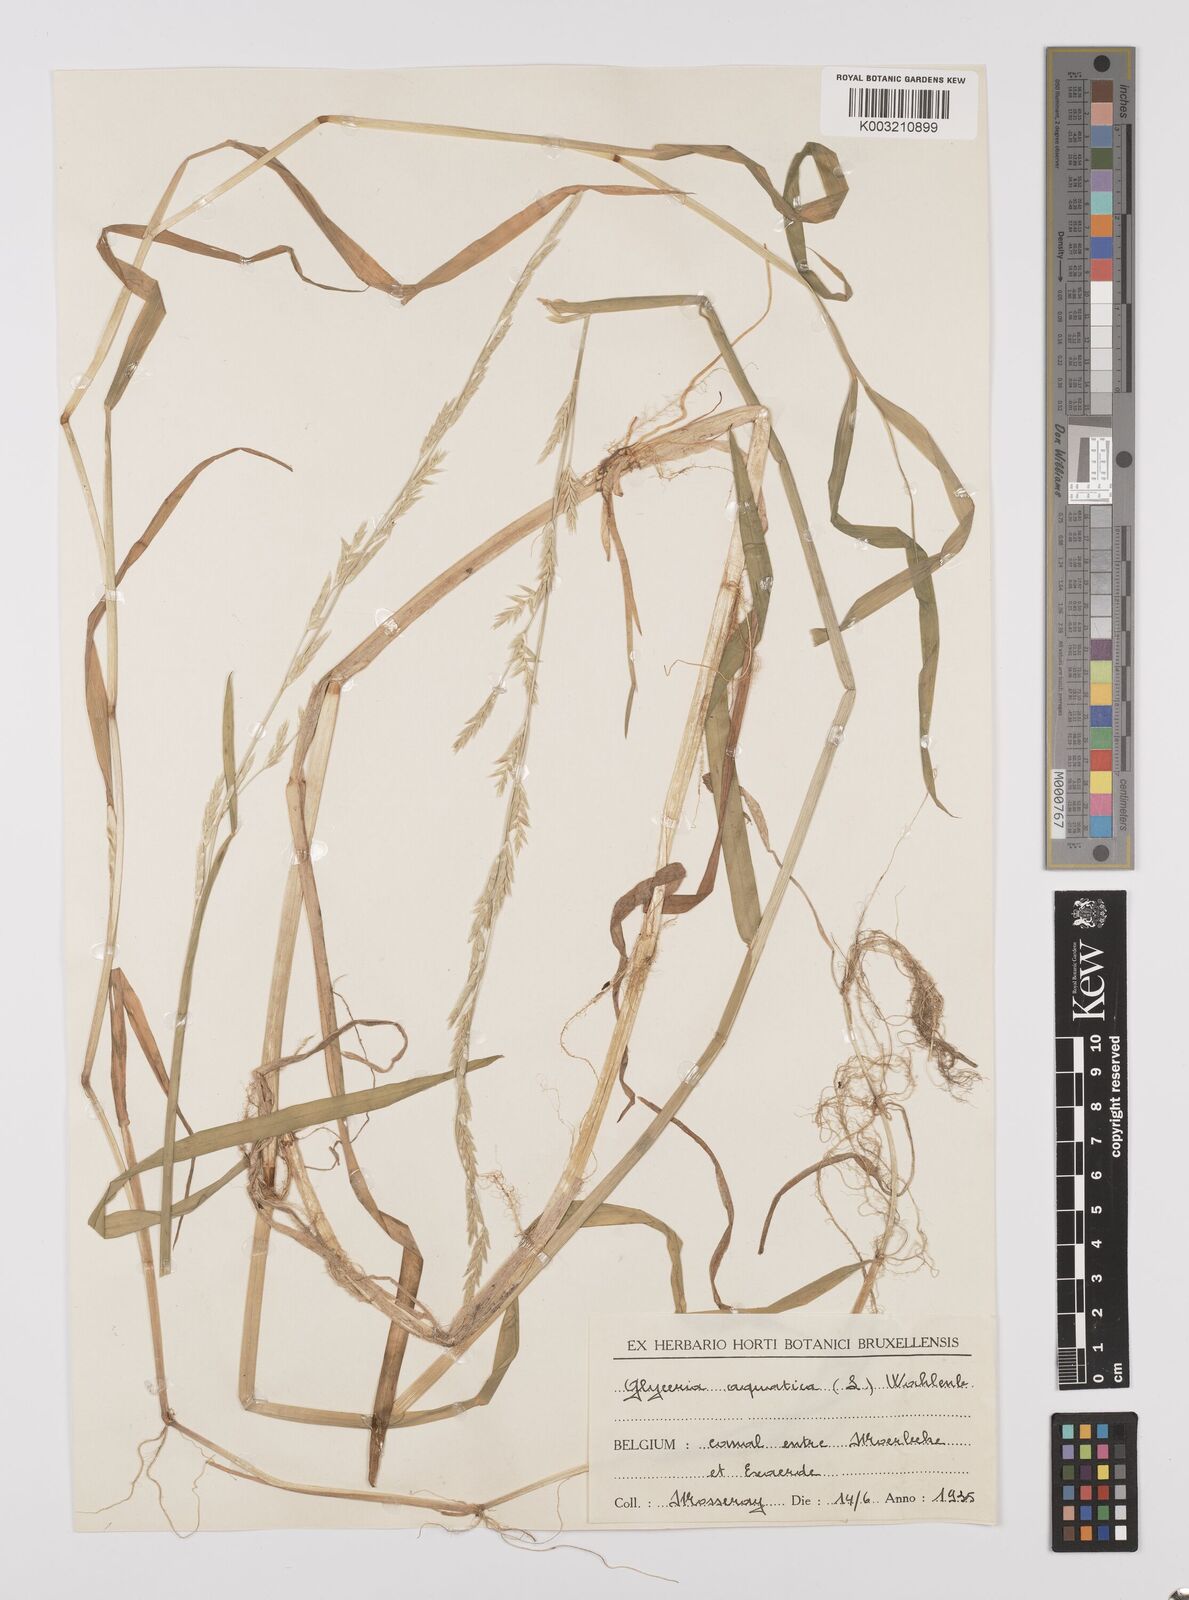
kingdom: Plantae
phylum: Tracheophyta
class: Liliopsida
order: Poales
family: Poaceae
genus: Glyceria
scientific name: Glyceria fluitans
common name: Floating sweet-grass
